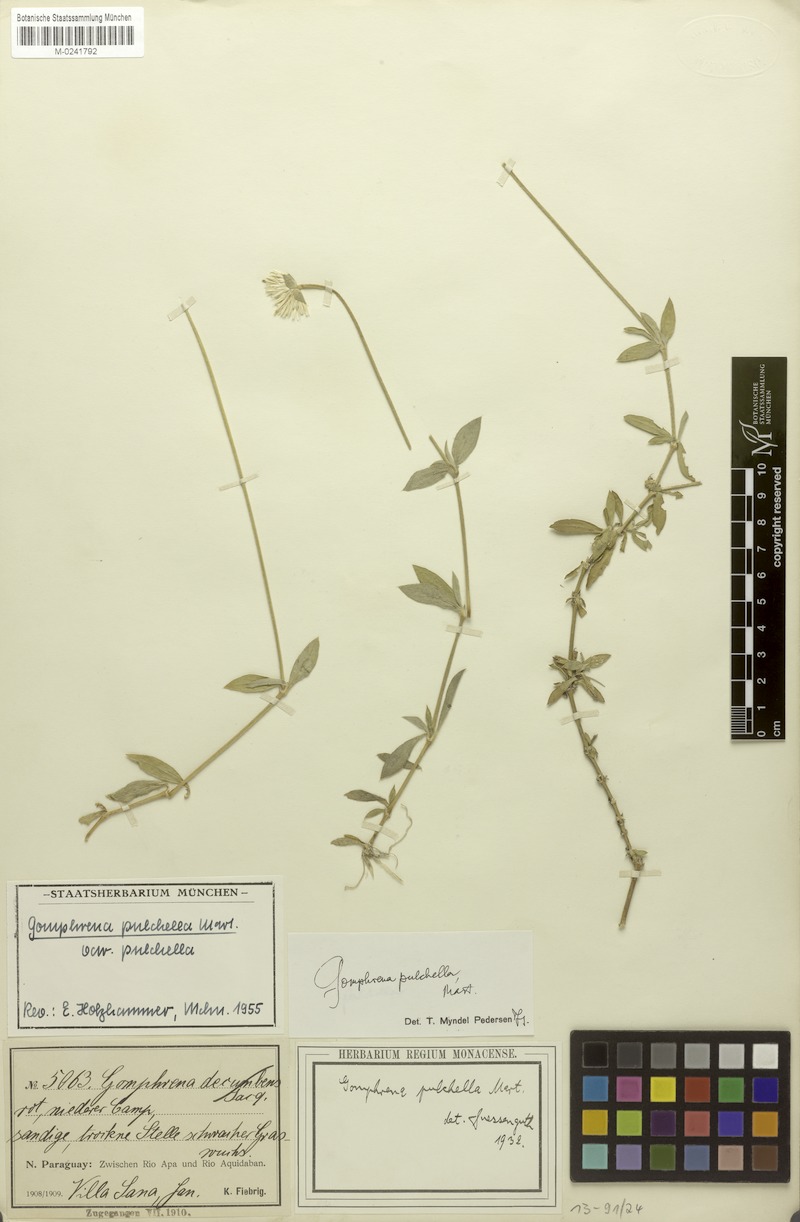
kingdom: Plantae
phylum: Tracheophyta
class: Magnoliopsida
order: Caryophyllales
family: Amaranthaceae
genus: Gomphrena
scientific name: Gomphrena pulchella
